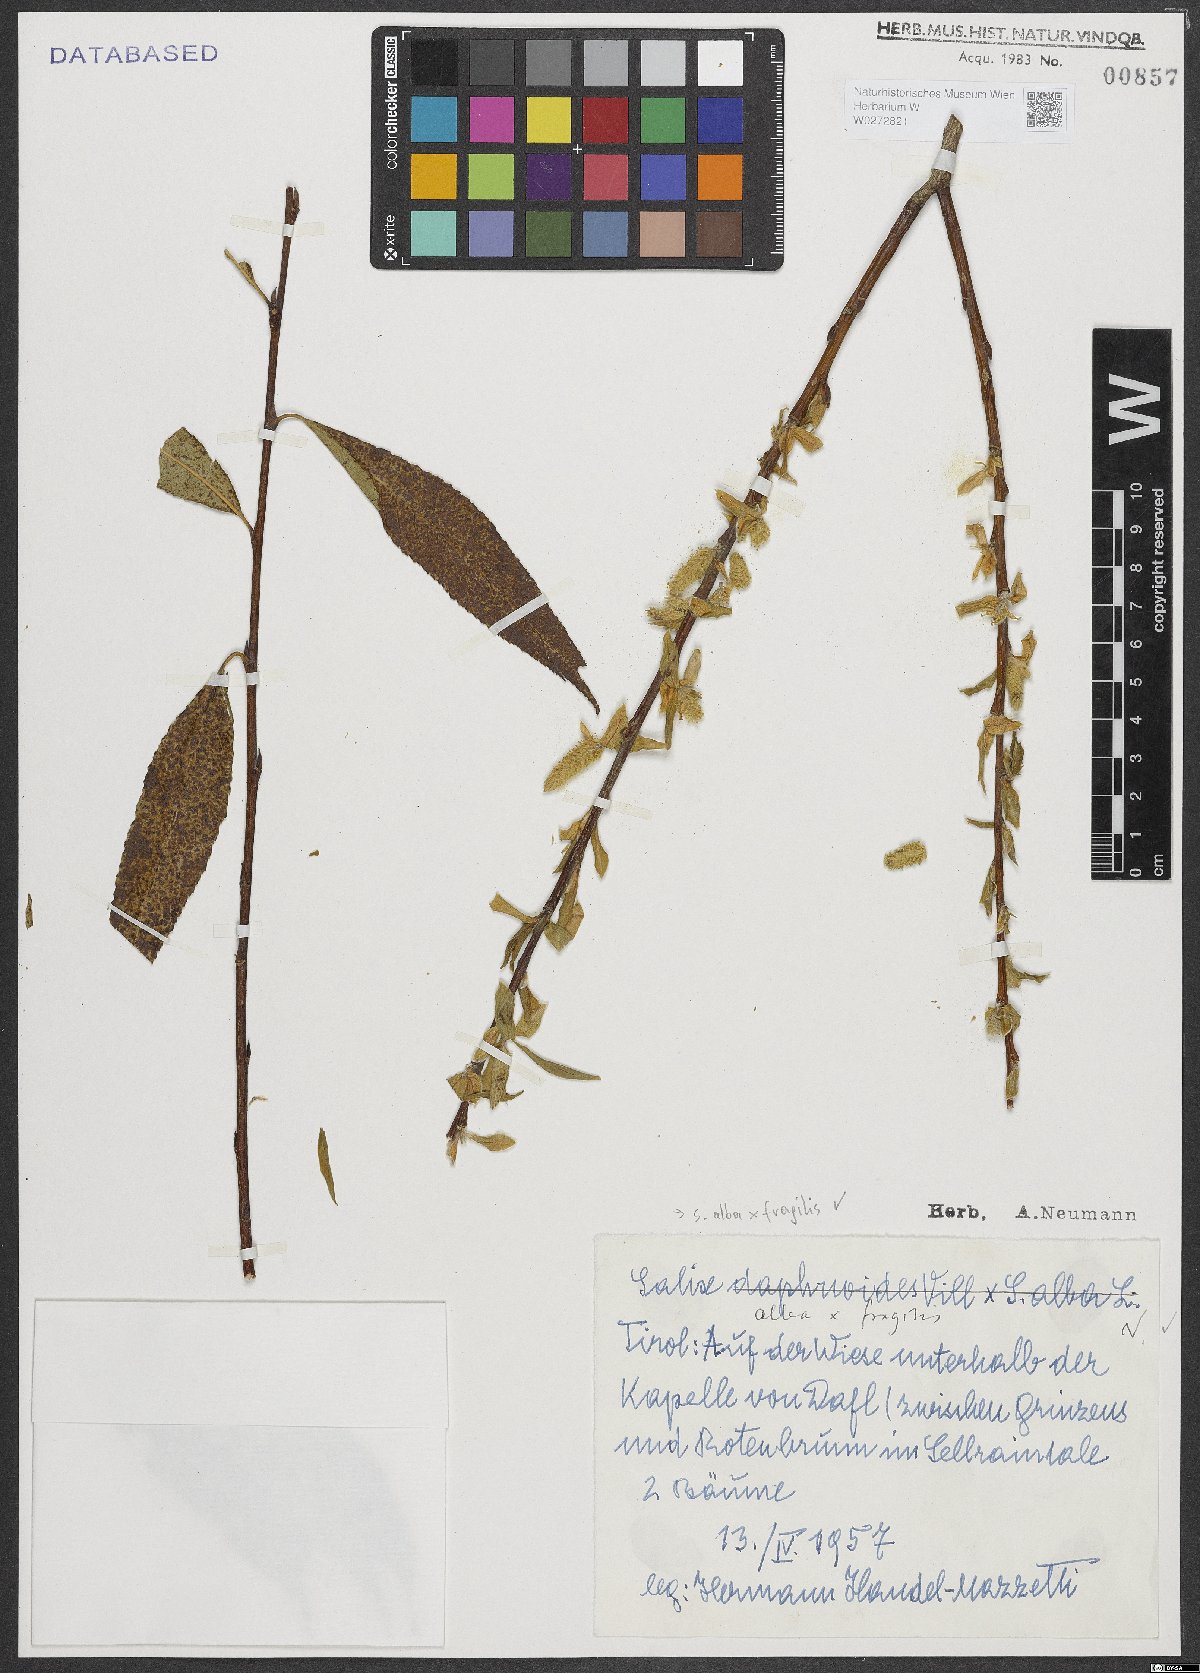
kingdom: Plantae
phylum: Tracheophyta
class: Magnoliopsida
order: Malpighiales
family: Salicaceae
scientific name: Salicaceae
